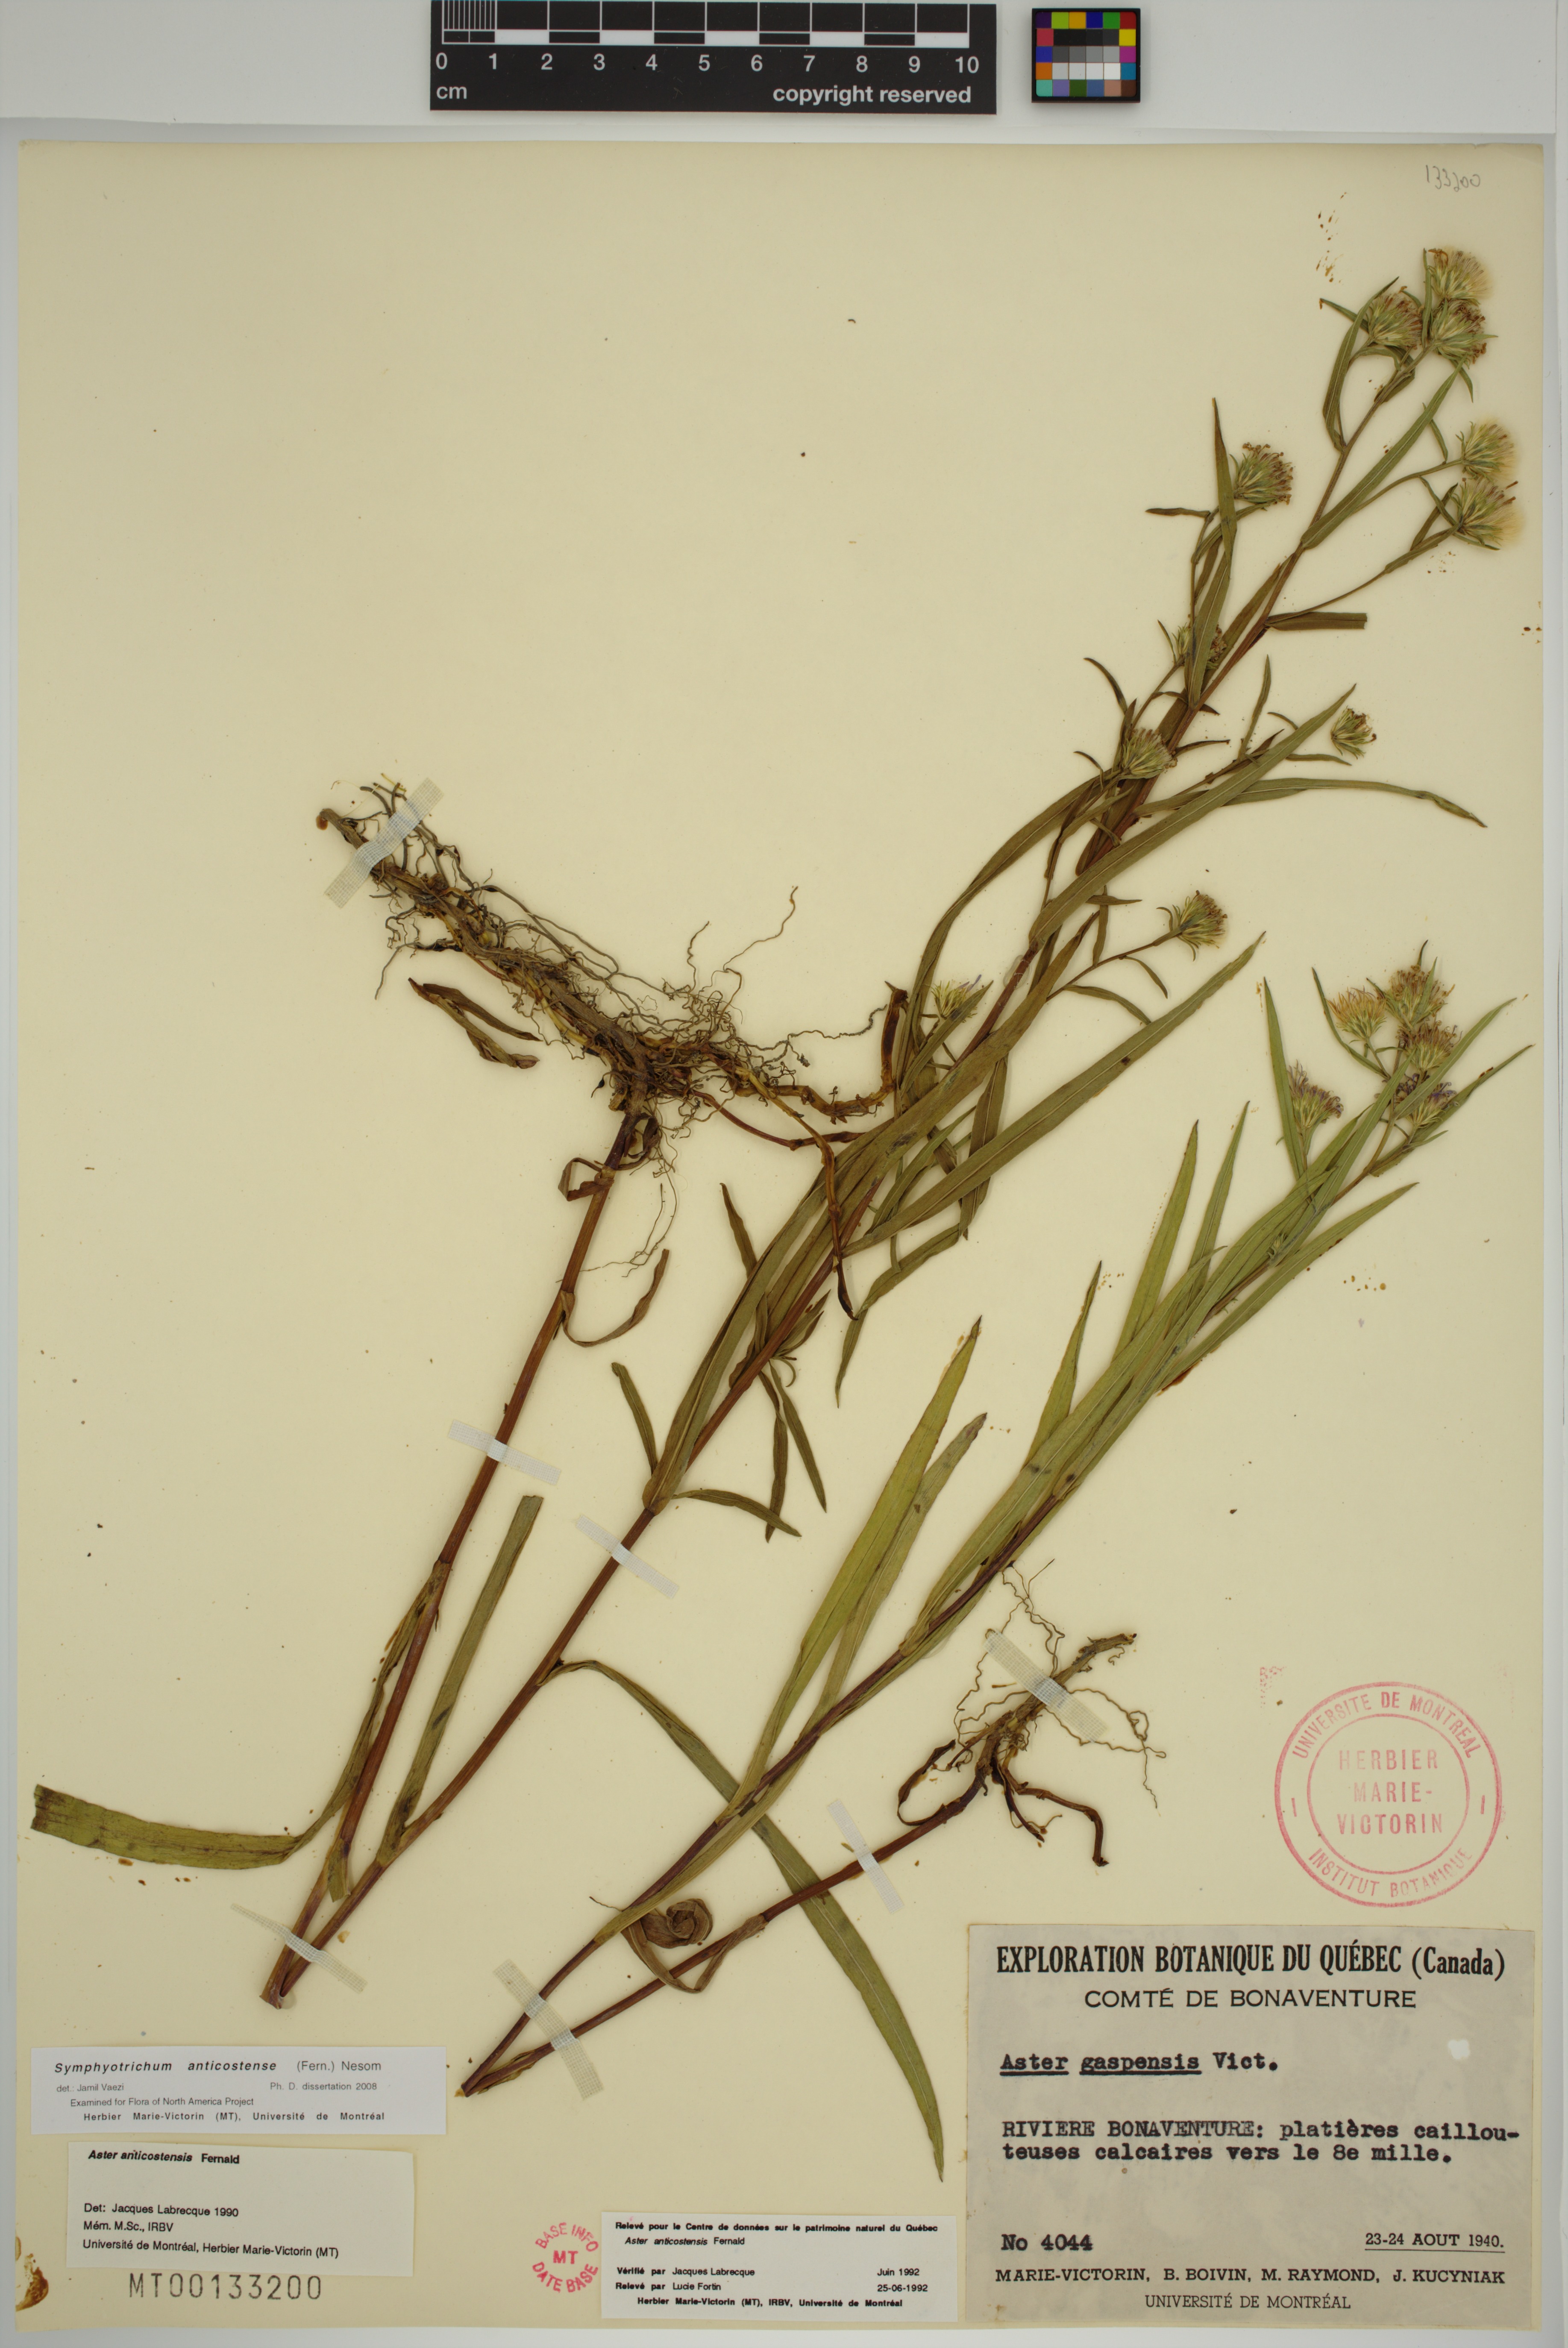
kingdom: Plantae
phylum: Tracheophyta
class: Magnoliopsida
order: Asterales
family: Asteraceae
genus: Symphyotrichum
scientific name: Symphyotrichum anticostense
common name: Anticosti island aster
